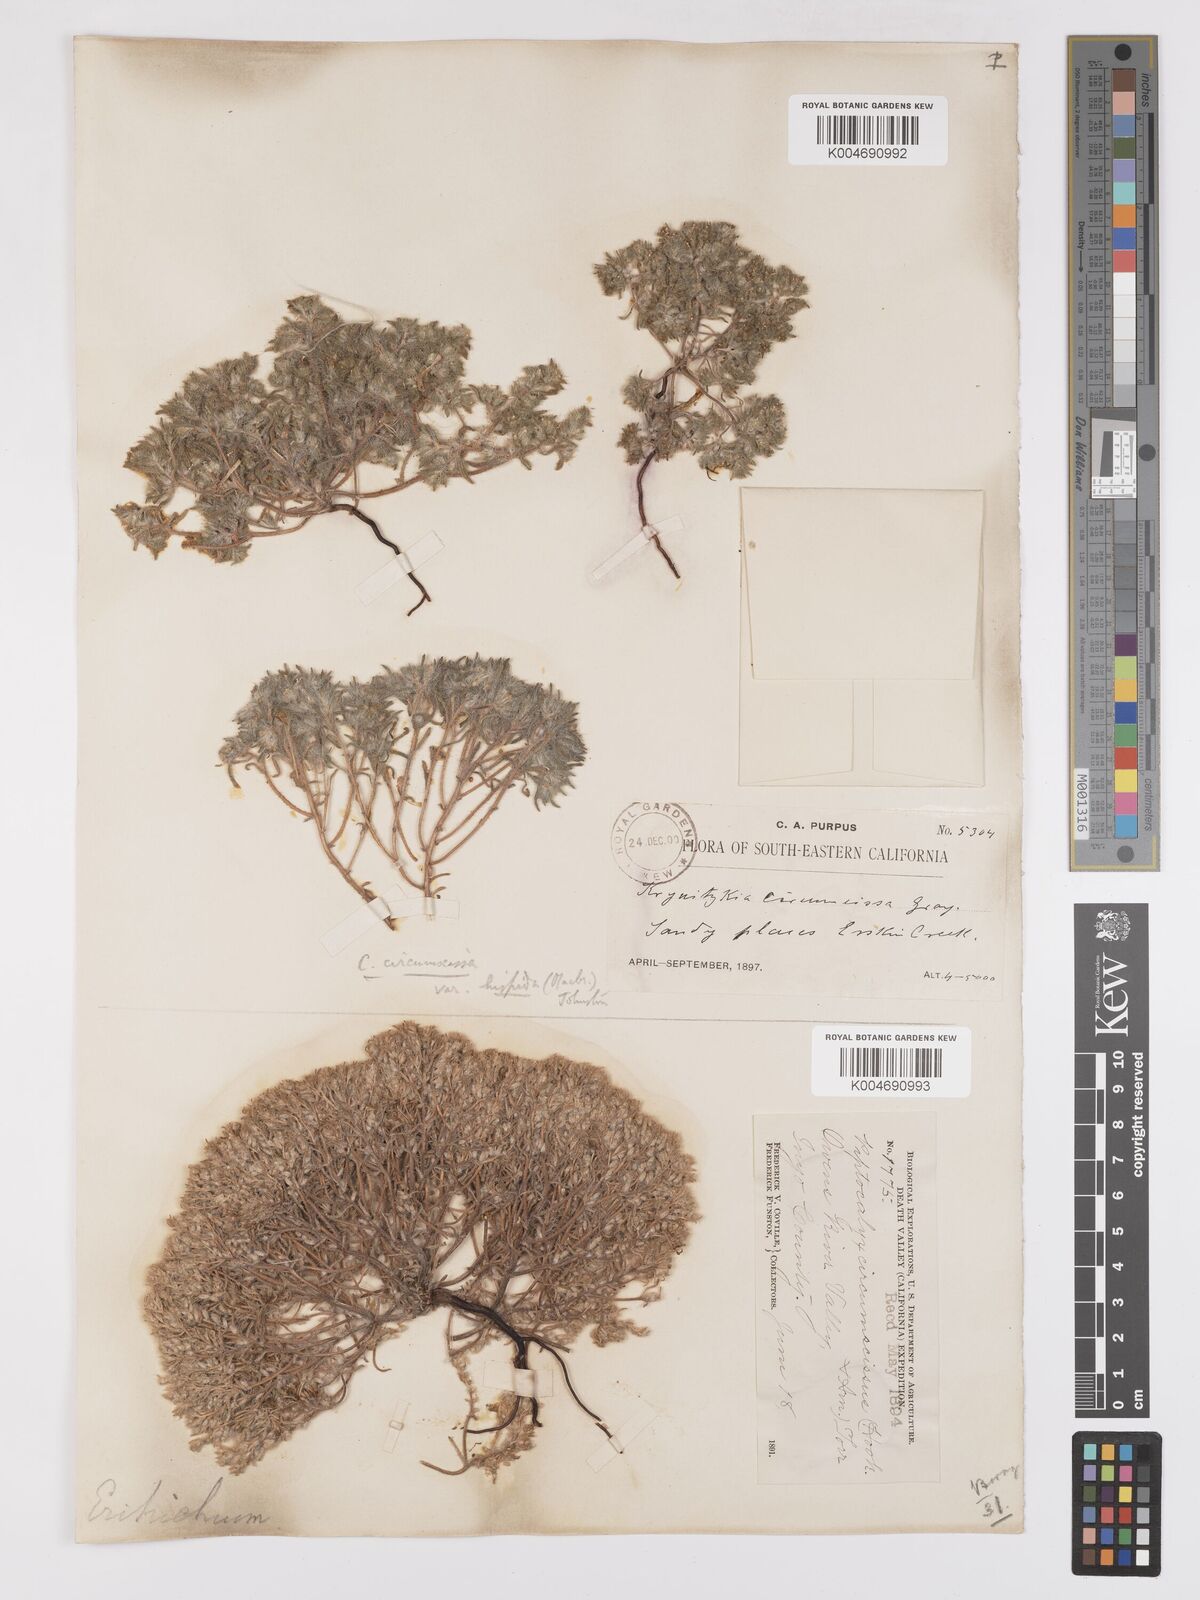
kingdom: Plantae
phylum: Tracheophyta
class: Magnoliopsida
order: Boraginales
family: Boraginaceae
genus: Greeneocharis
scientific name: Greeneocharis circumscissa
